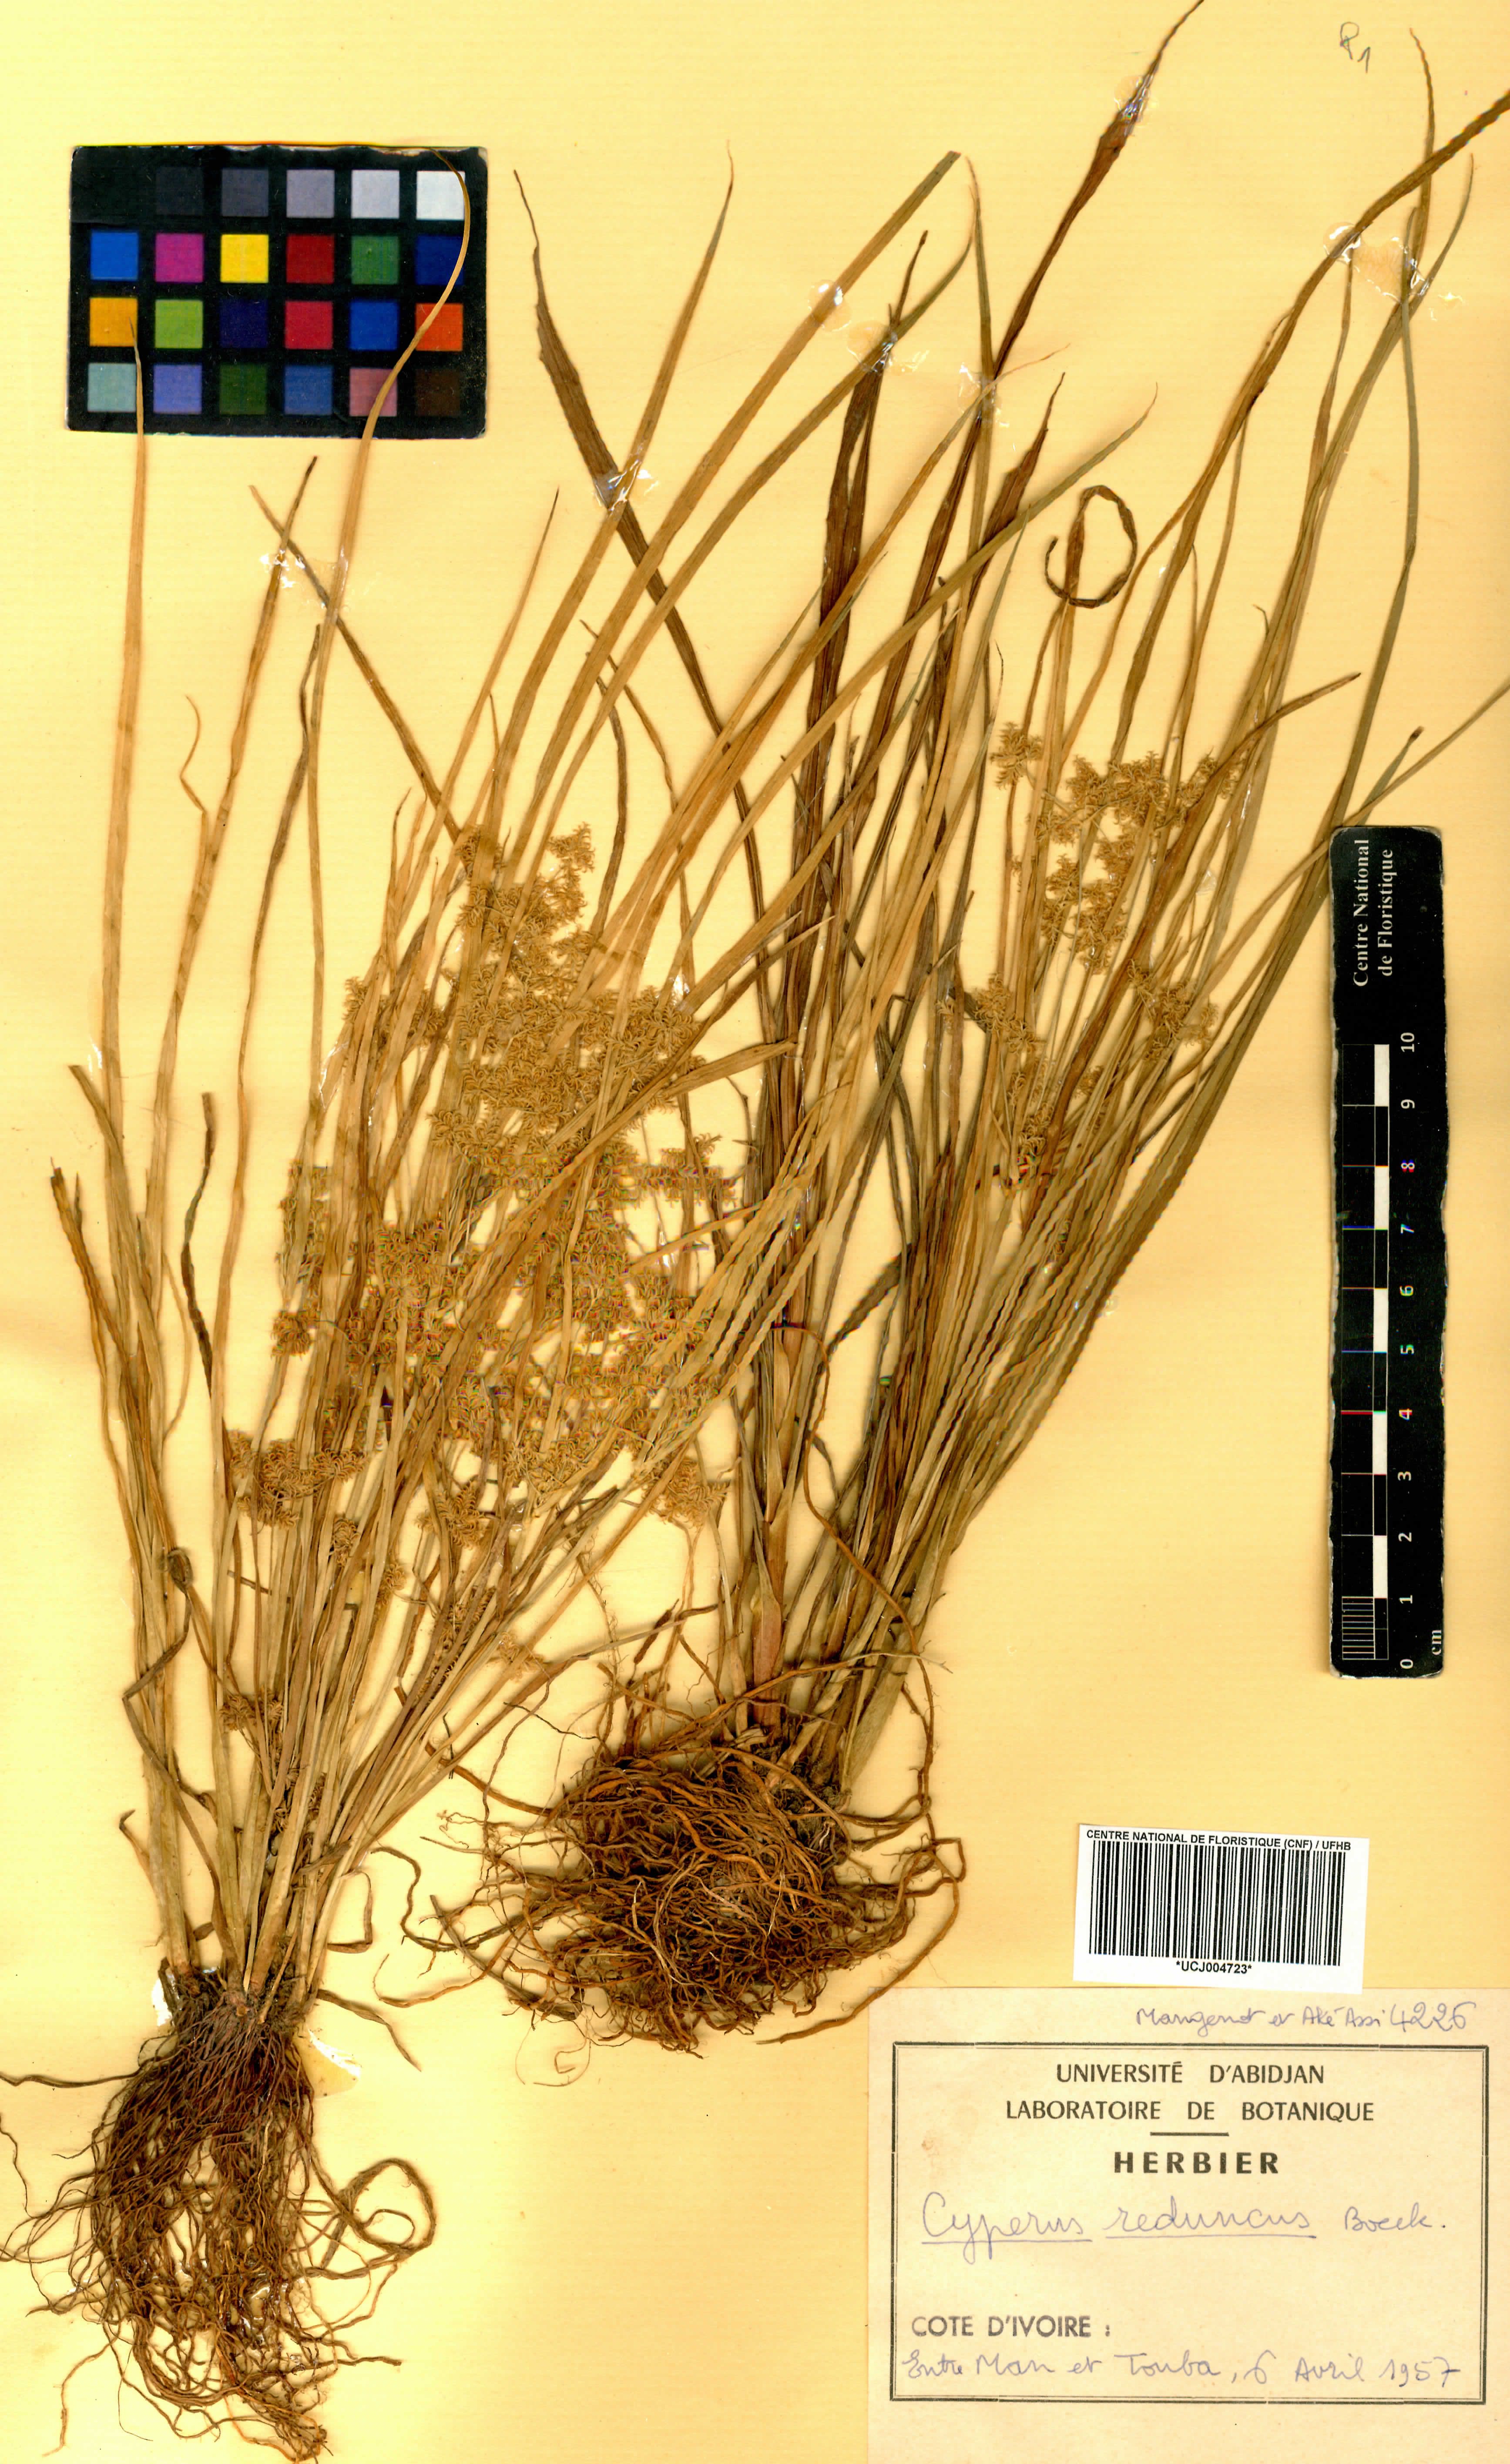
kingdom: Plantae
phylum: Tracheophyta
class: Liliopsida
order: Poales
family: Cyperaceae
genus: Cyperus
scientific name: Cyperus reduncus
